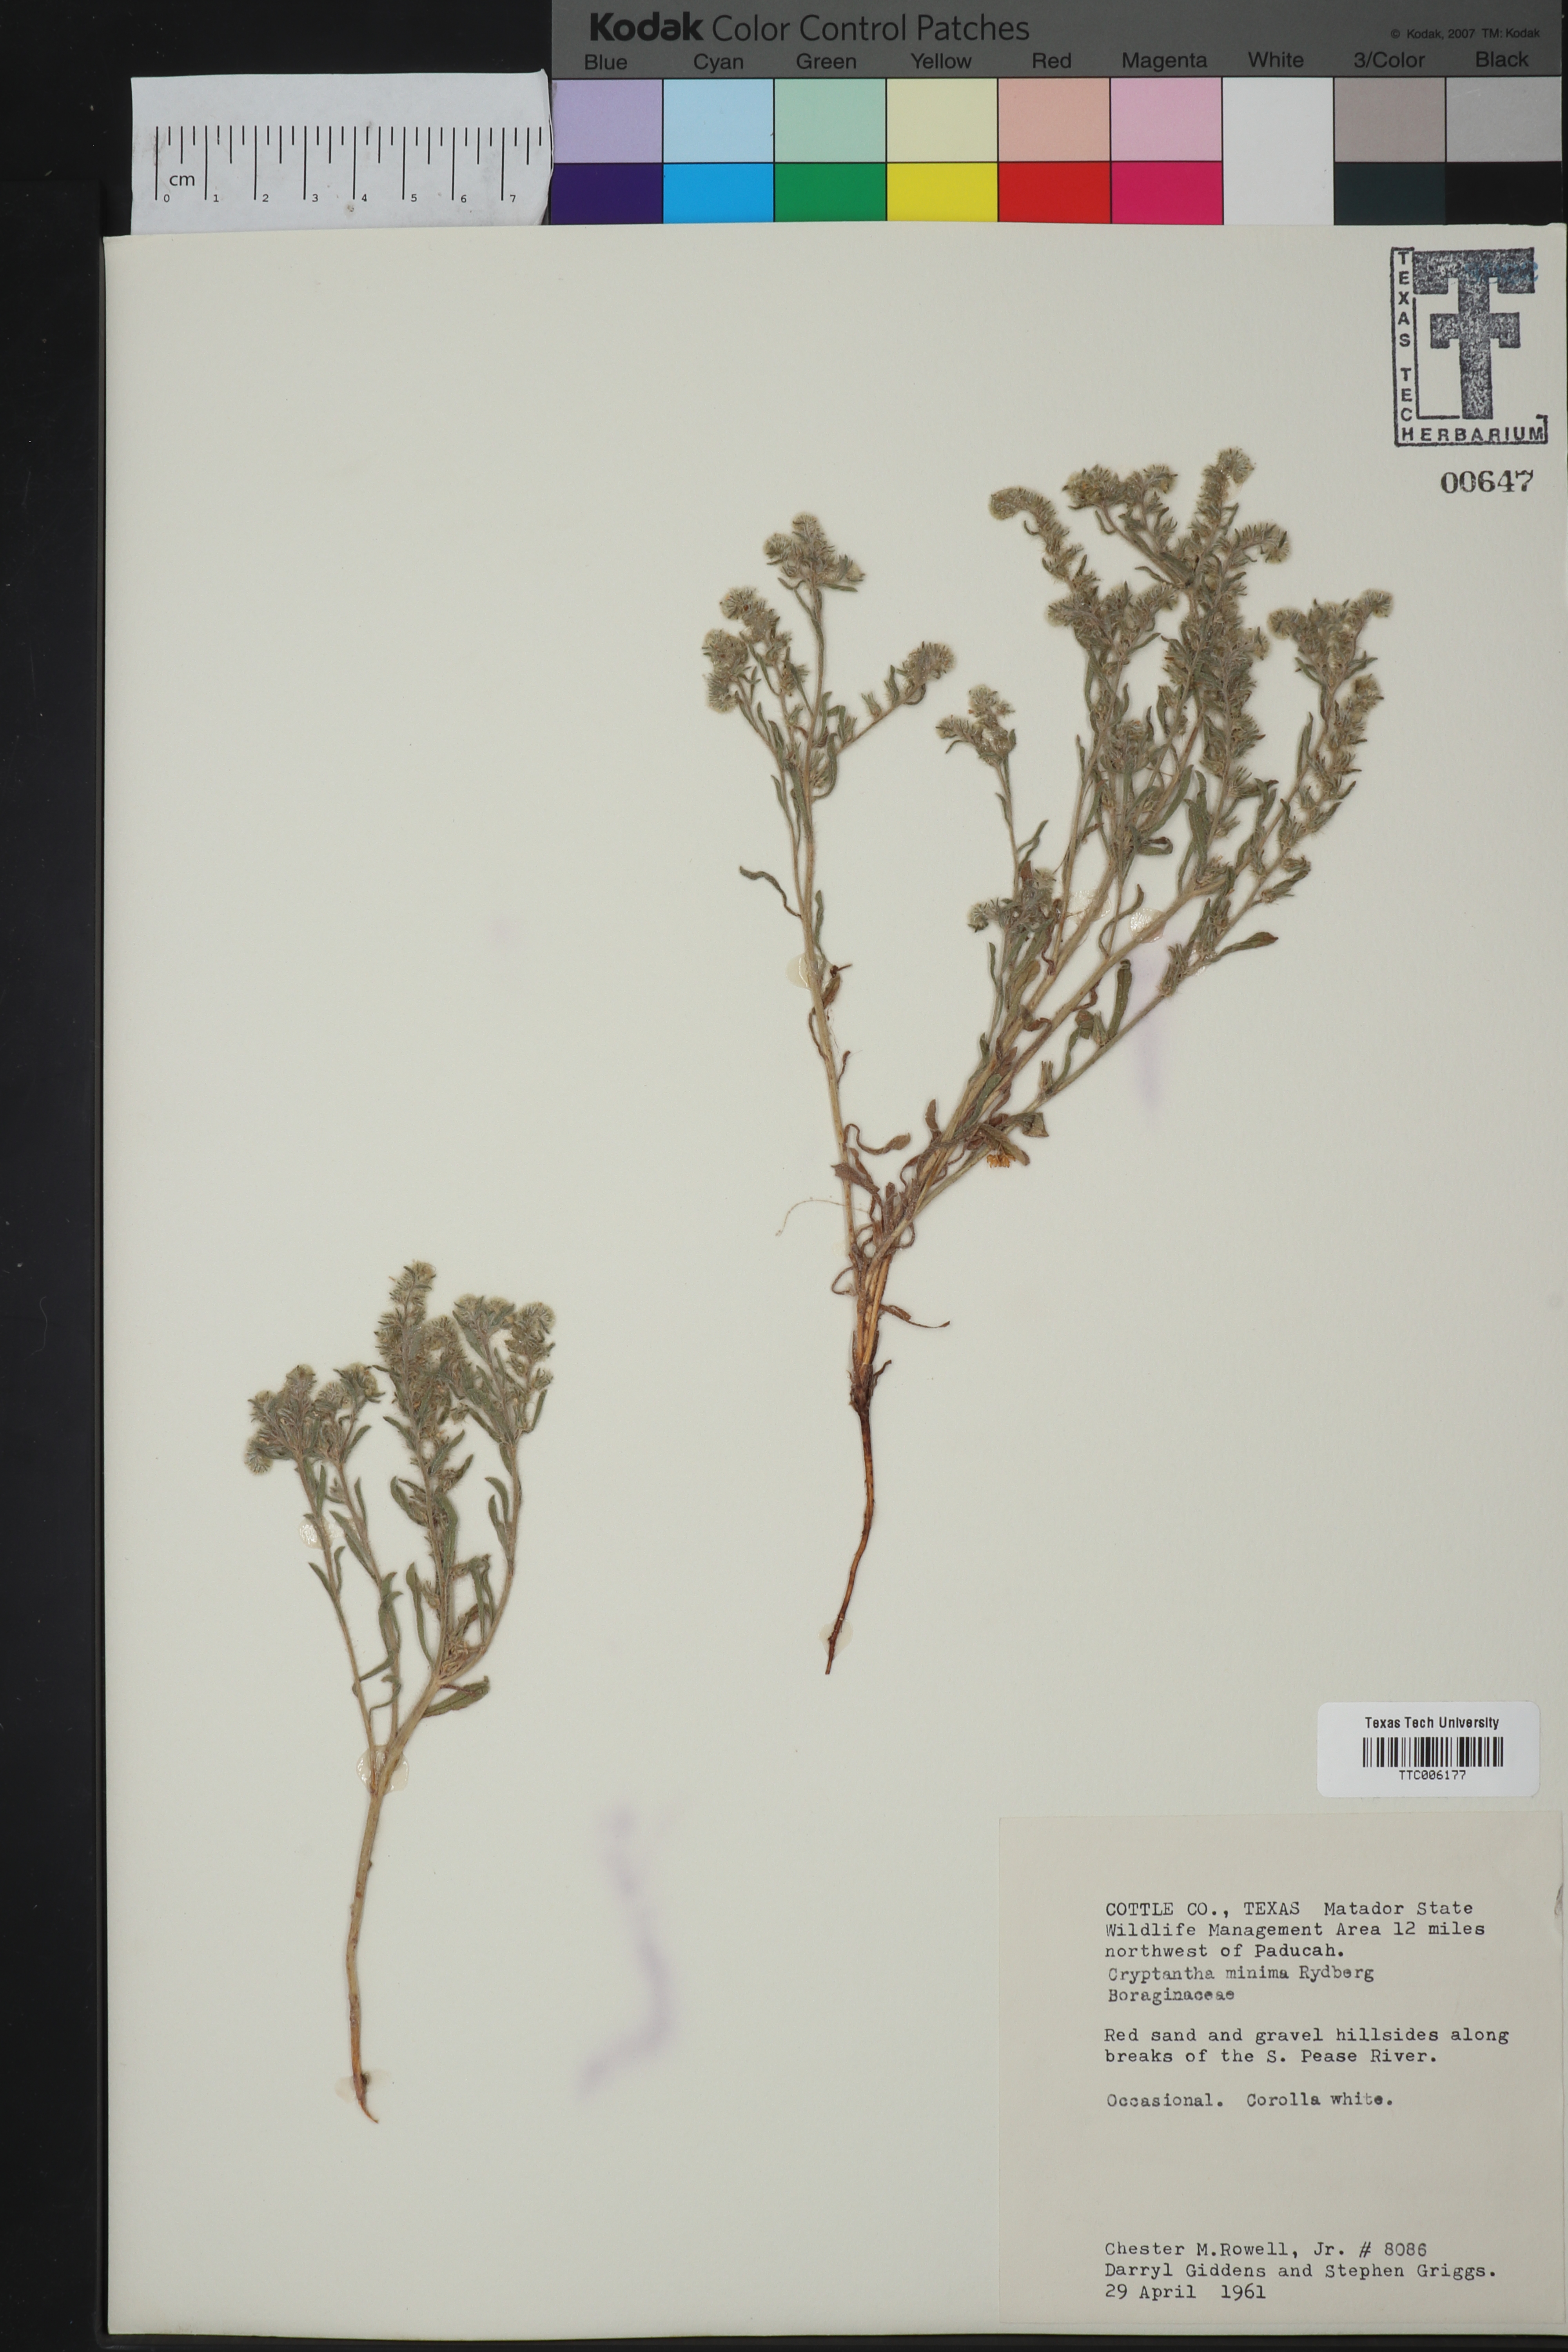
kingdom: Plantae
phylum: Tracheophyta
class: Magnoliopsida
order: Boraginales
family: Boraginaceae
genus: Cryptantha
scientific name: Cryptantha minima
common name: Little cat's-eye
